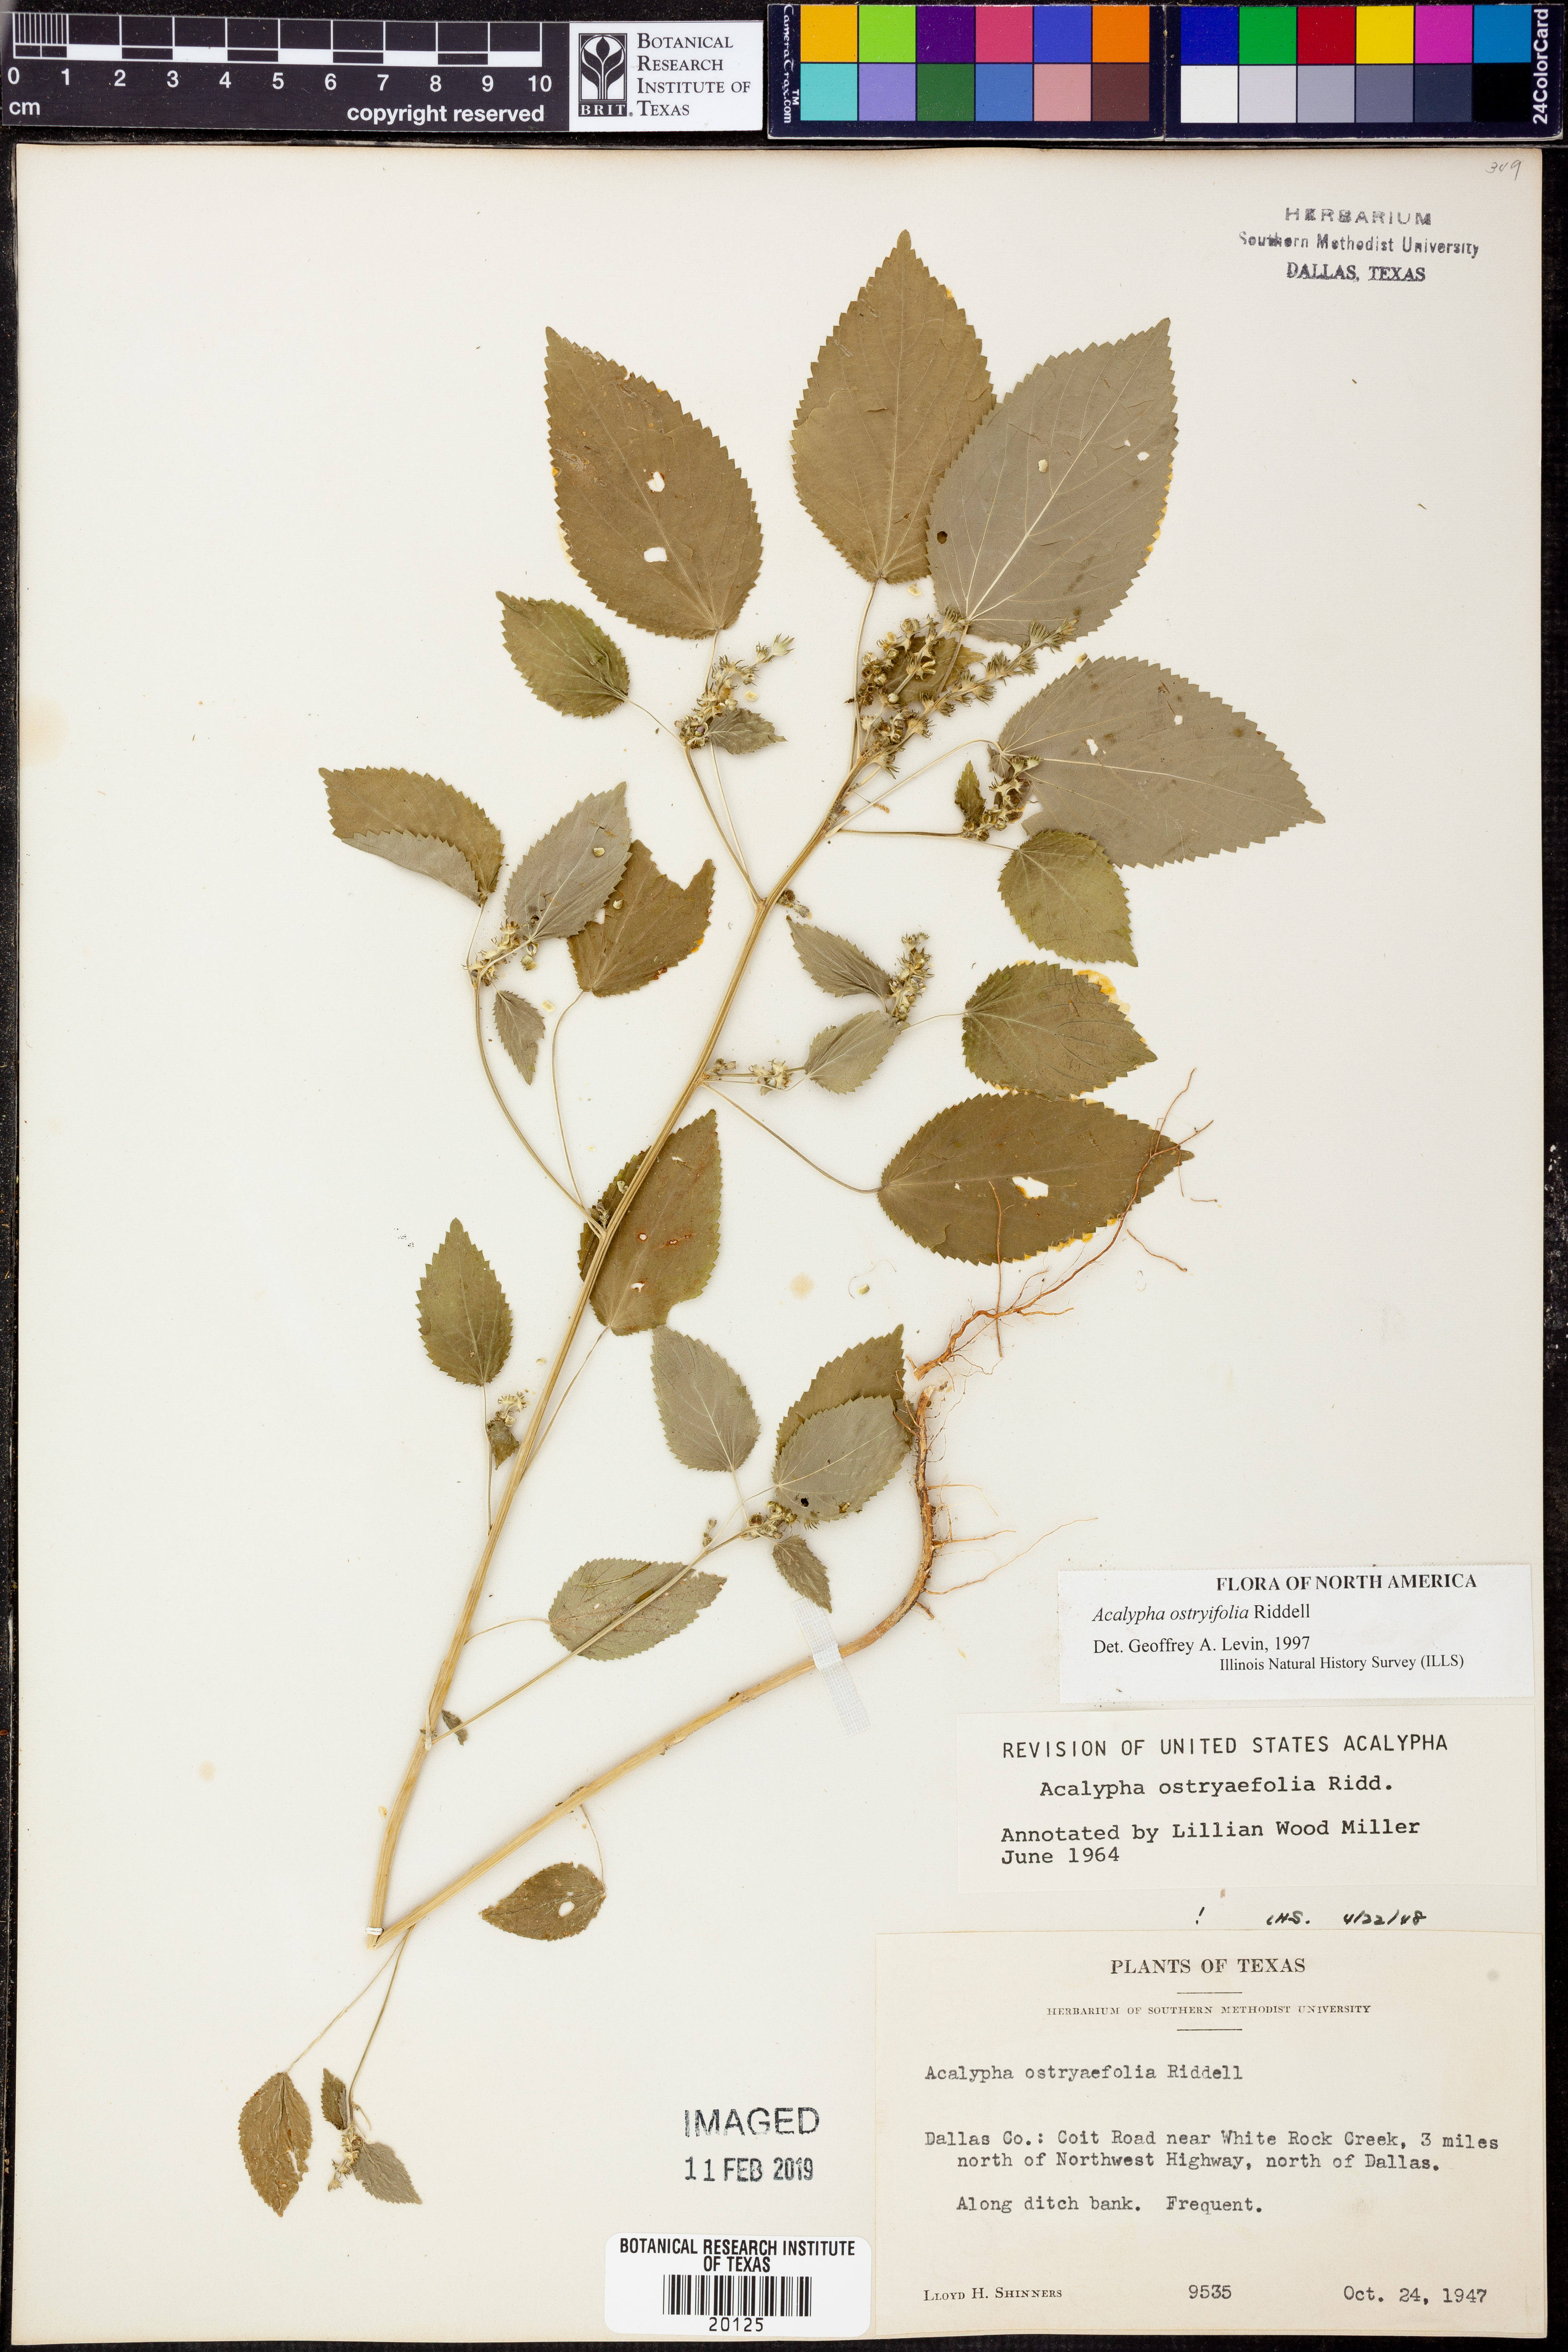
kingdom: Plantae
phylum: Tracheophyta
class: Magnoliopsida
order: Malpighiales
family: Euphorbiaceae
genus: Acalypha
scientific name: Acalypha persimilis
